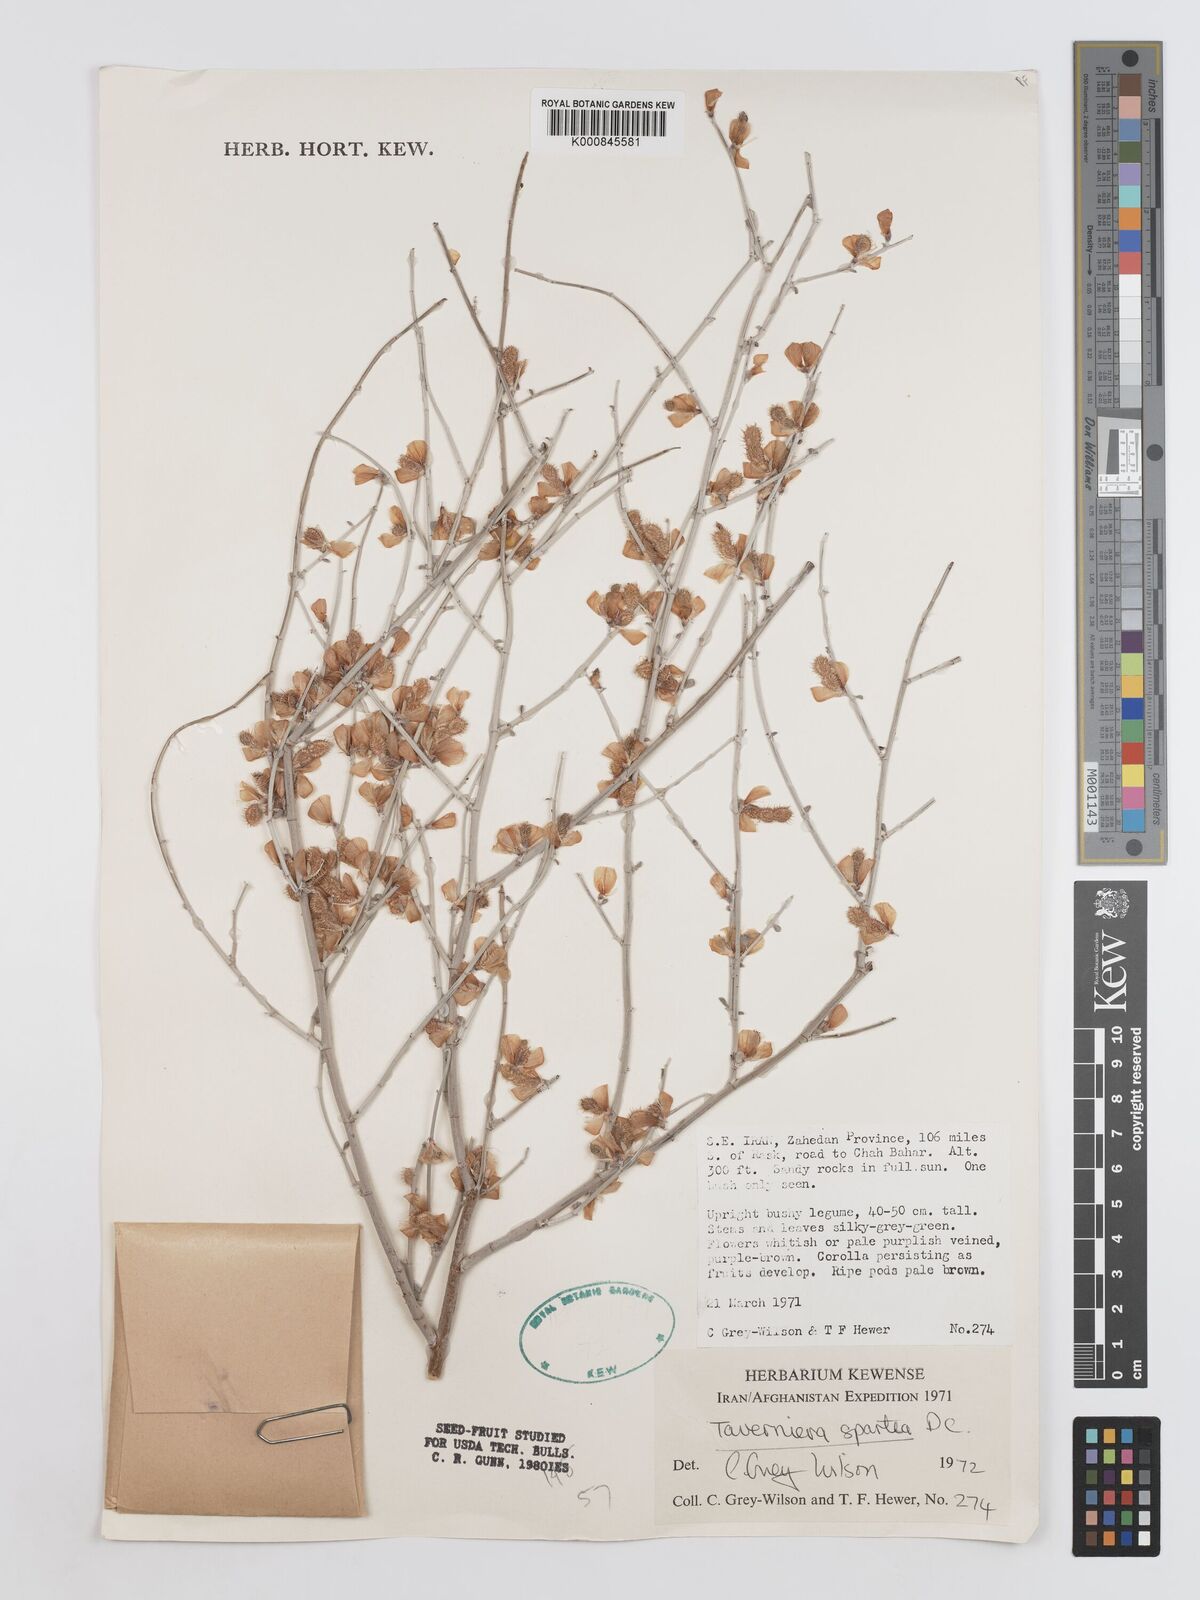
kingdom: Plantae
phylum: Tracheophyta
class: Magnoliopsida
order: Fabales
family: Fabaceae
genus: Taverniera
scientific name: Taverniera spartea
